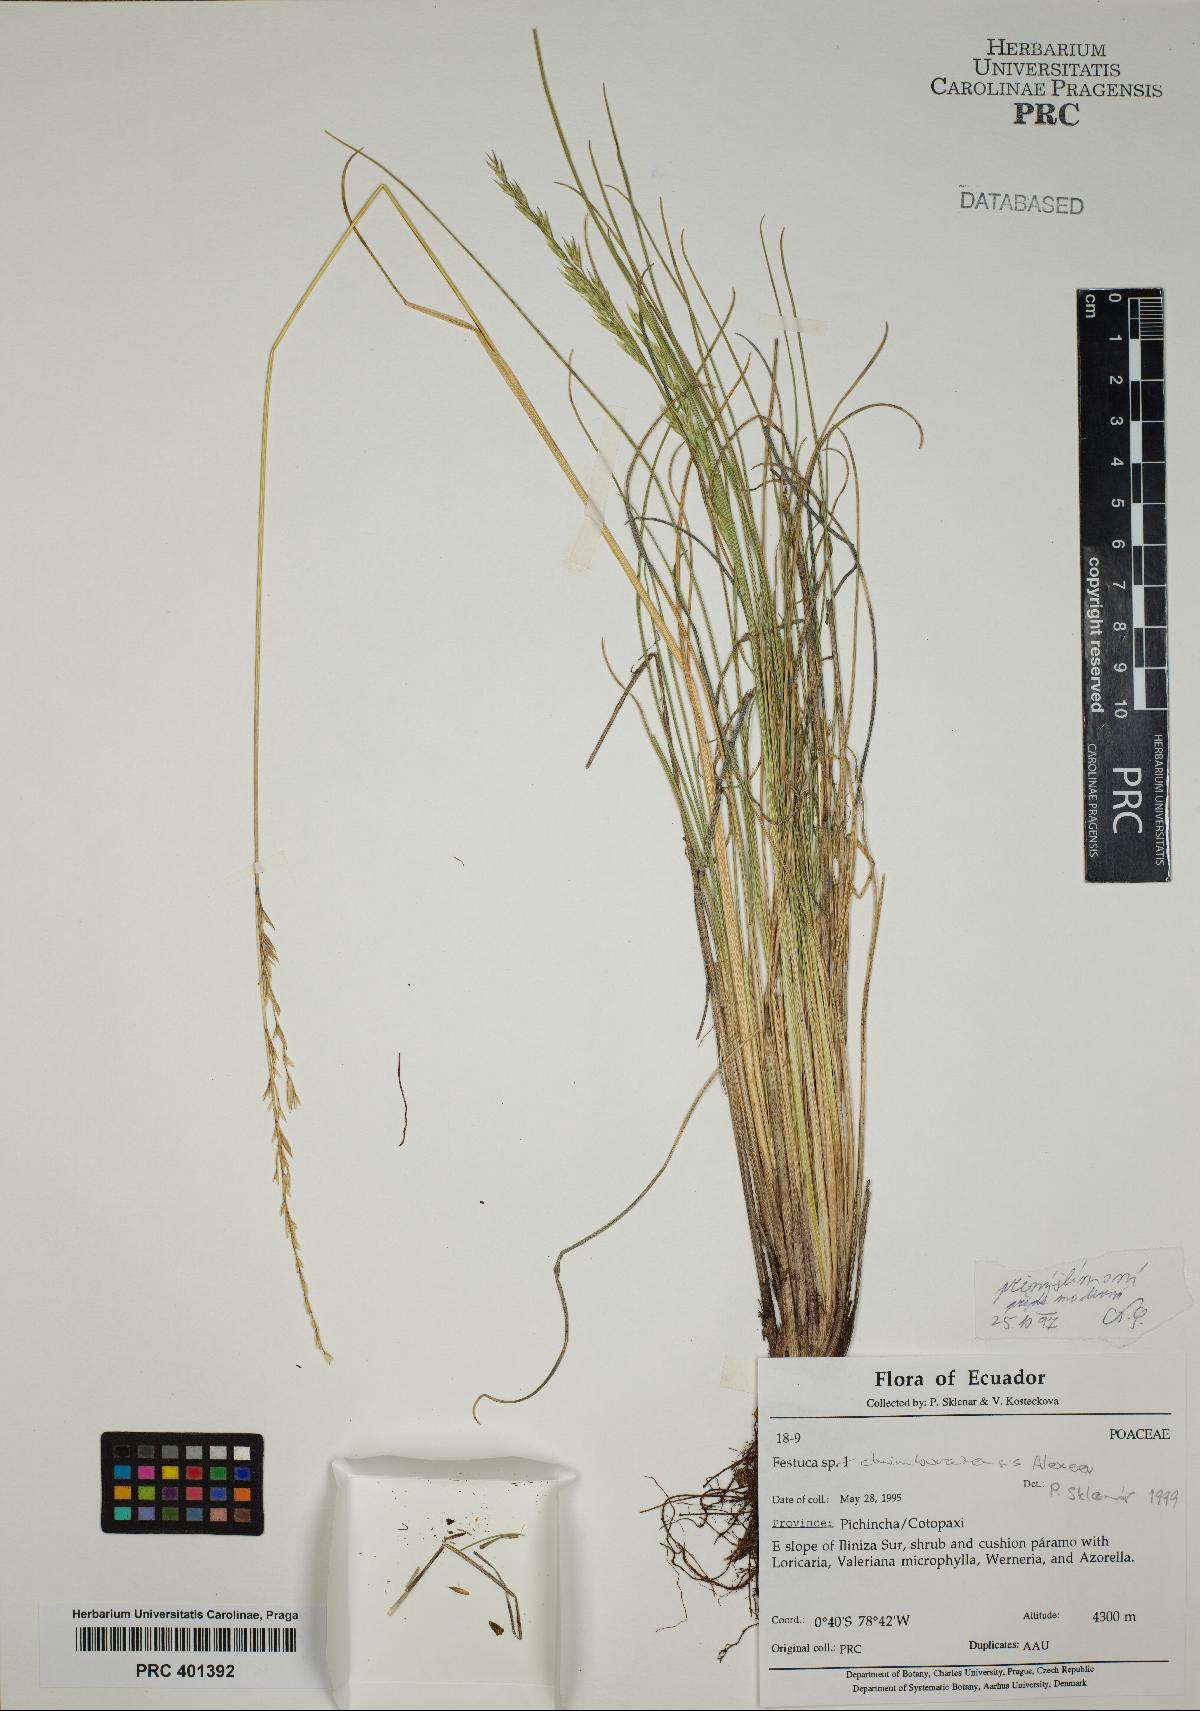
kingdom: Plantae
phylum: Tracheophyta
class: Liliopsida
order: Poales
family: Poaceae
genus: Festuca
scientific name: Festuca chimborazensis
